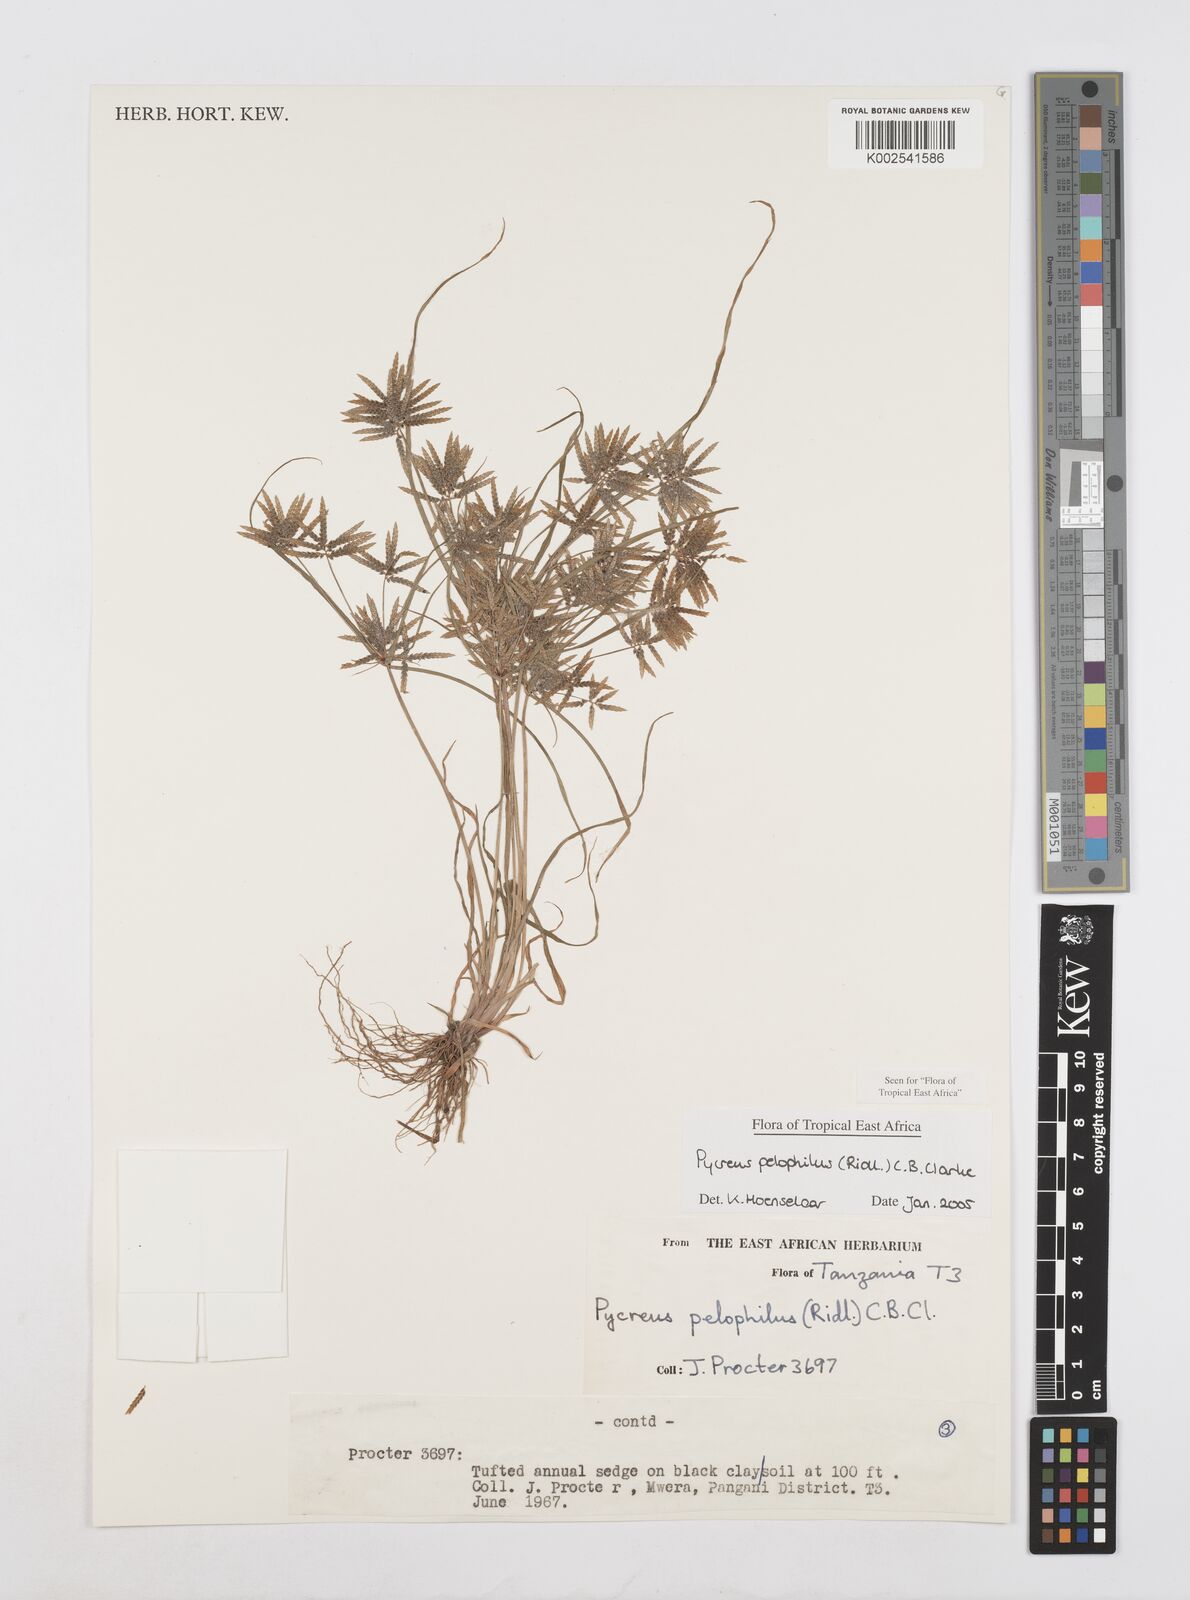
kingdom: Plantae
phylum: Tracheophyta
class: Liliopsida
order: Poales
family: Cyperaceae
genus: Cyperus
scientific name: Cyperus pelophilus
